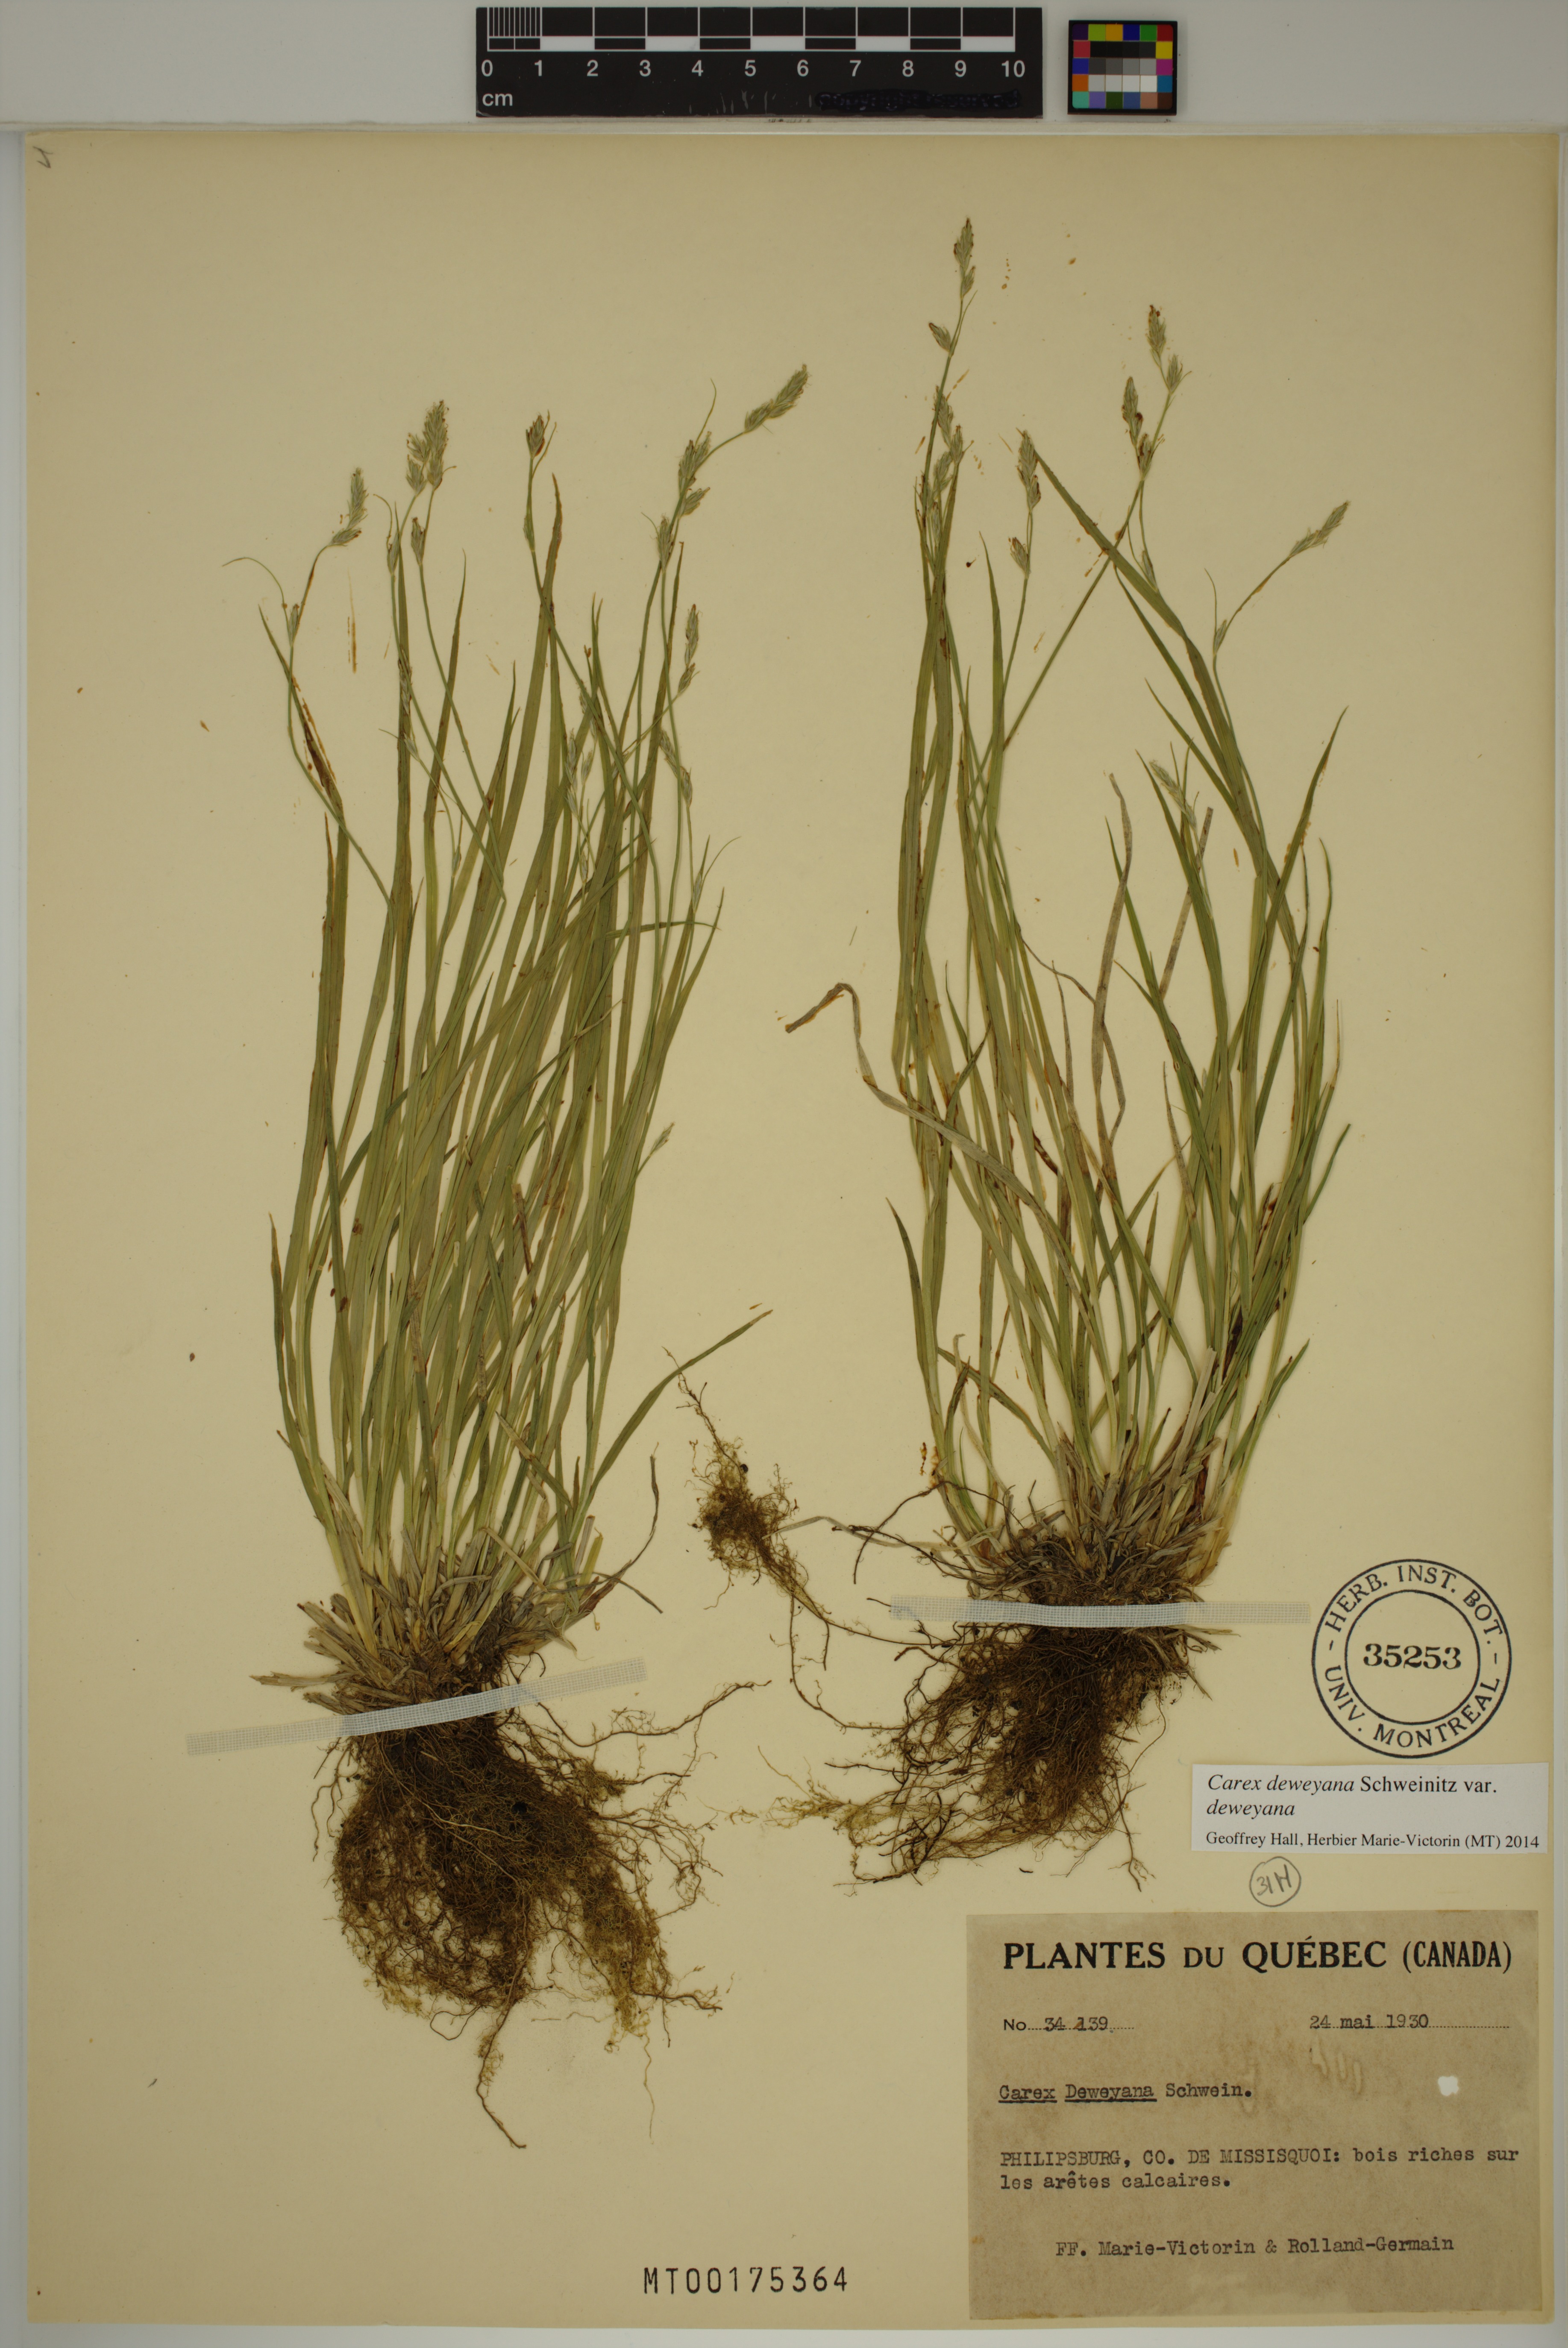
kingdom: Plantae
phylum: Tracheophyta
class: Liliopsida
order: Poales
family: Cyperaceae
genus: Carex
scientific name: Carex deweyana
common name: Dewey's sedge
